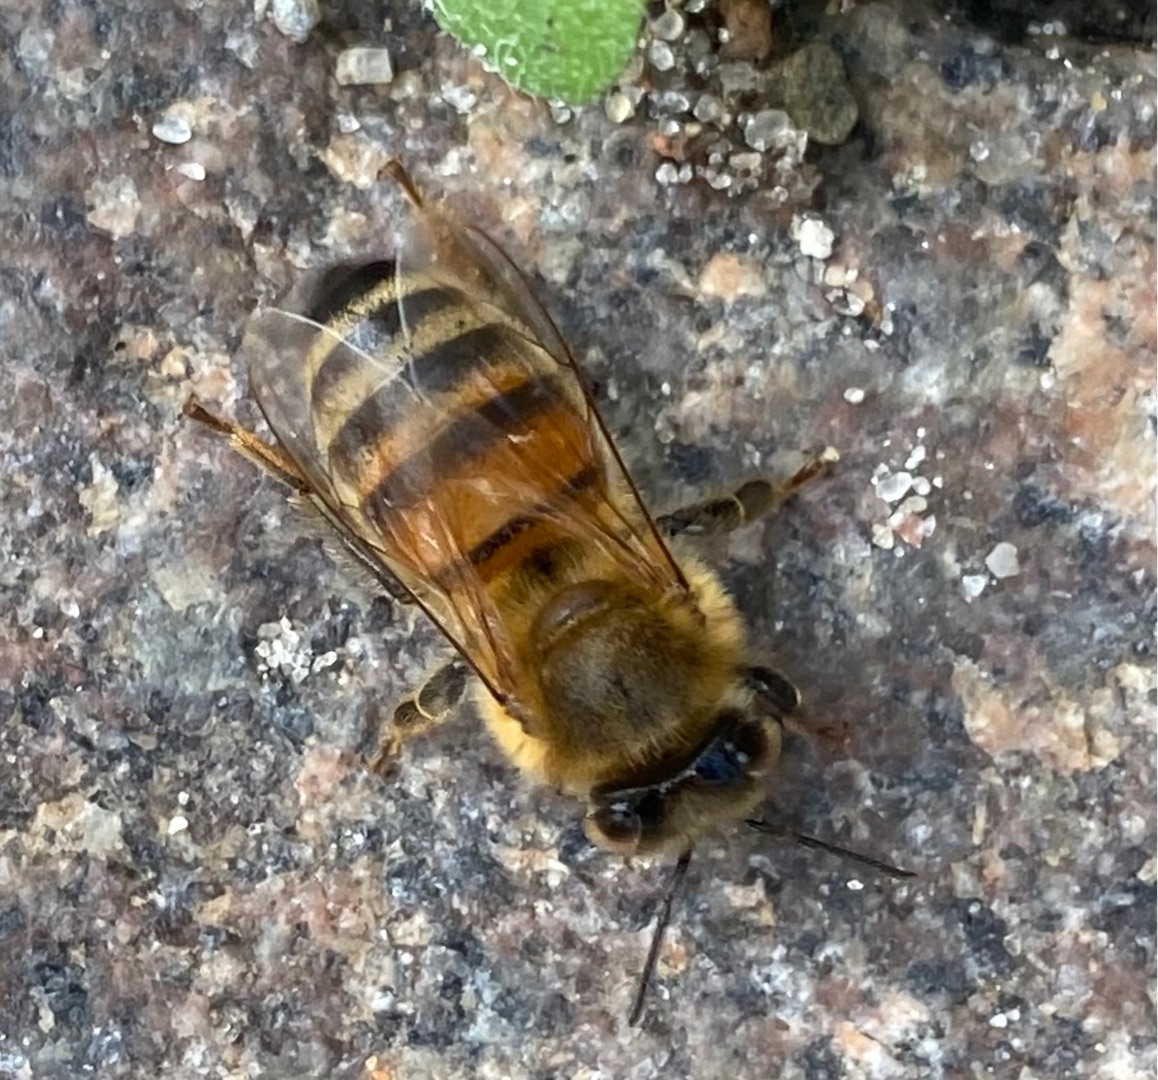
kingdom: Animalia
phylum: Arthropoda
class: Insecta
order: Hymenoptera
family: Apidae
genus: Apis
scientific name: Apis mellifera
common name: Honningbi
